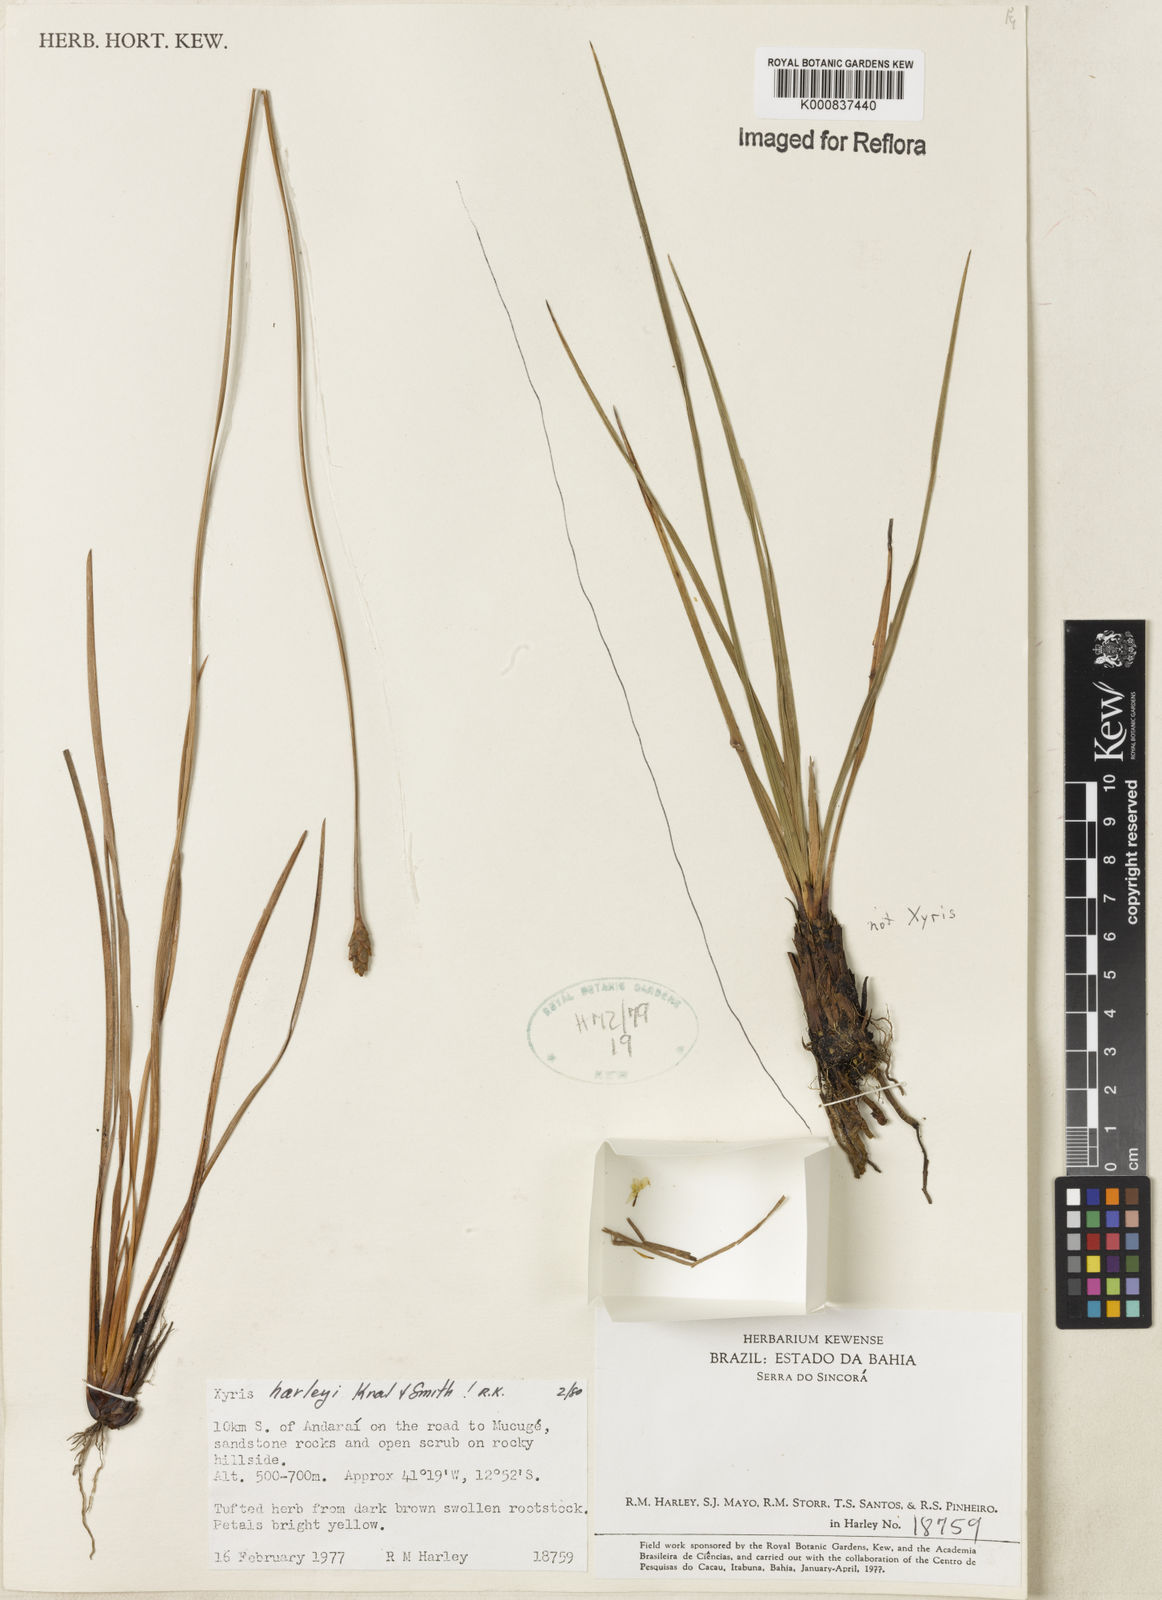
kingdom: Plantae
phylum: Tracheophyta
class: Liliopsida
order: Poales
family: Xyridaceae
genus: Xyris
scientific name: Xyris harleyi
